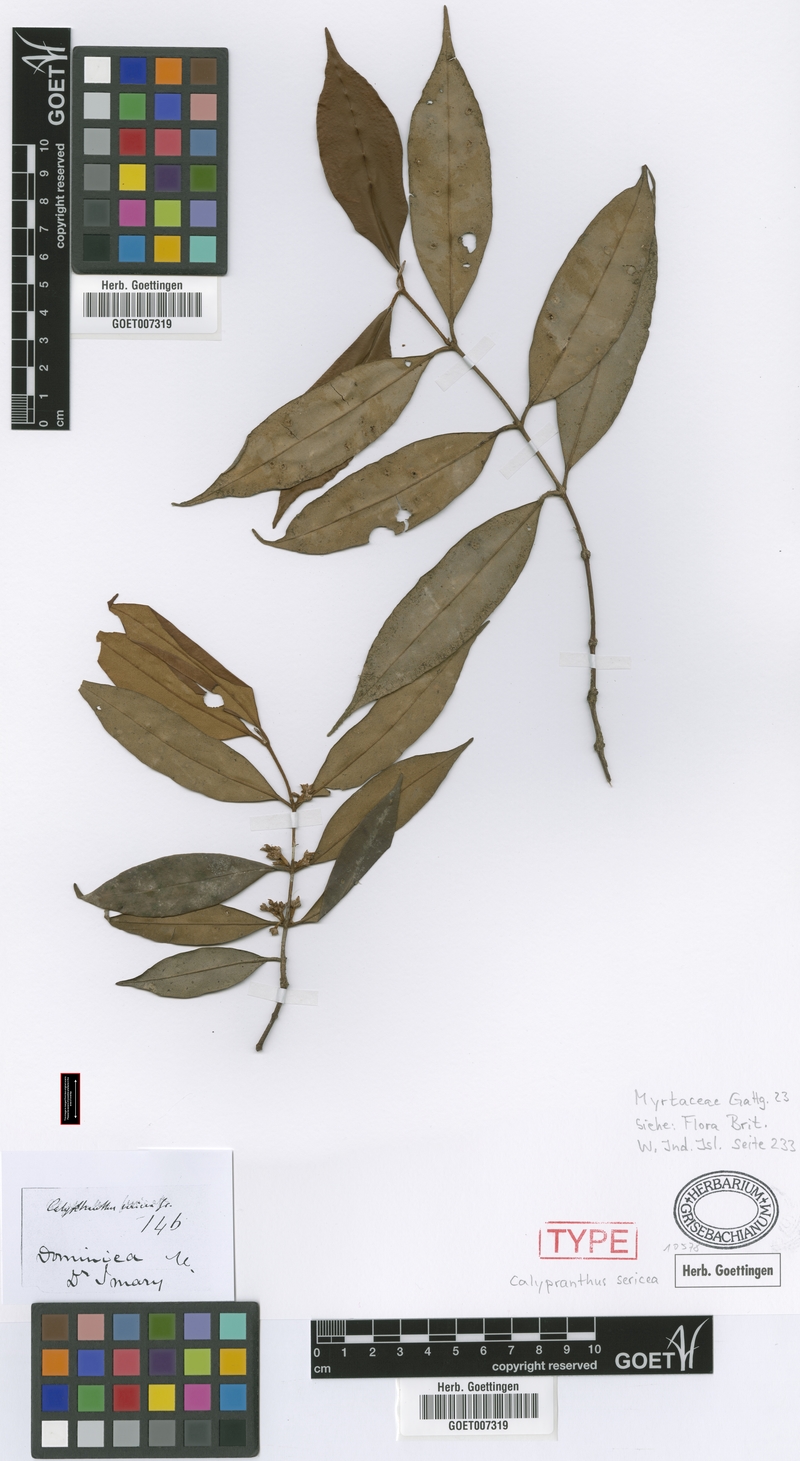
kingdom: Plantae
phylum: Tracheophyta
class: Magnoliopsida
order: Myrtales
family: Myrtaceae
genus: Myrcia
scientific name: Myrcia fasciculata
